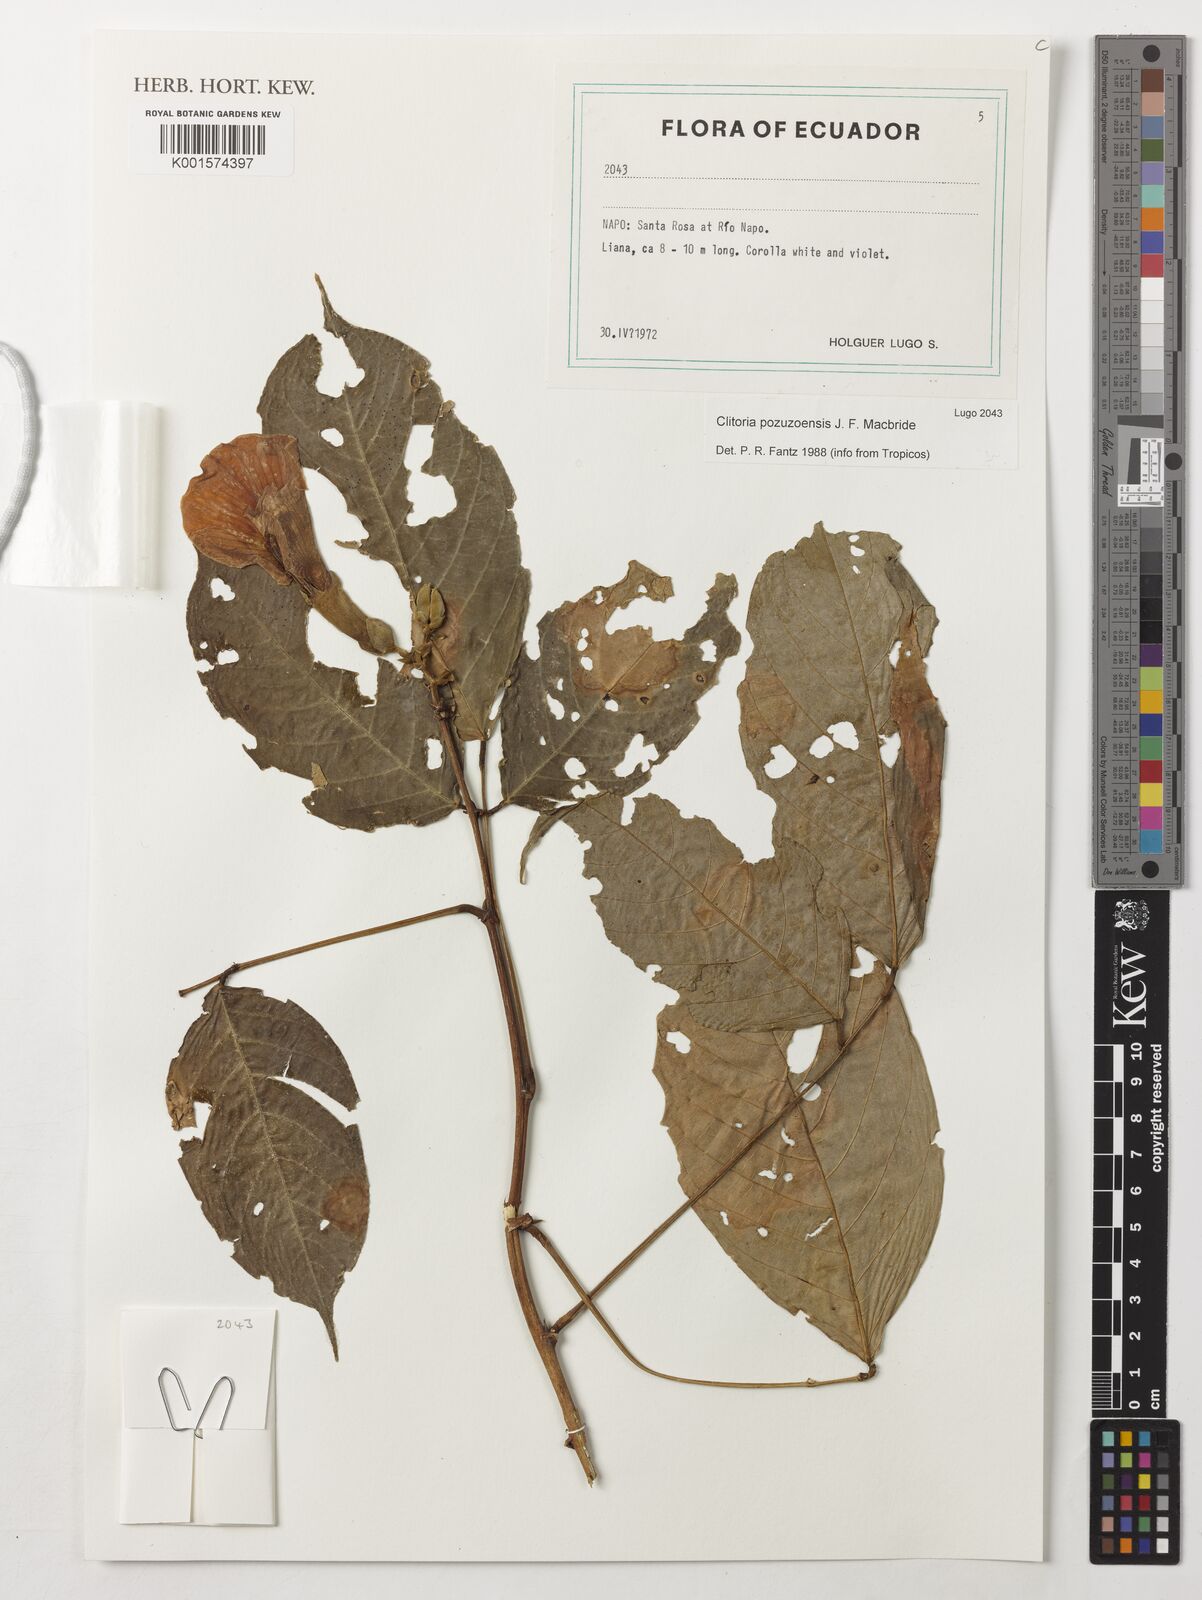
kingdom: Plantae
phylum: Tracheophyta
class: Magnoliopsida
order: Fabales
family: Fabaceae
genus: Clitoria
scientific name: Clitoria pozuzoensis
